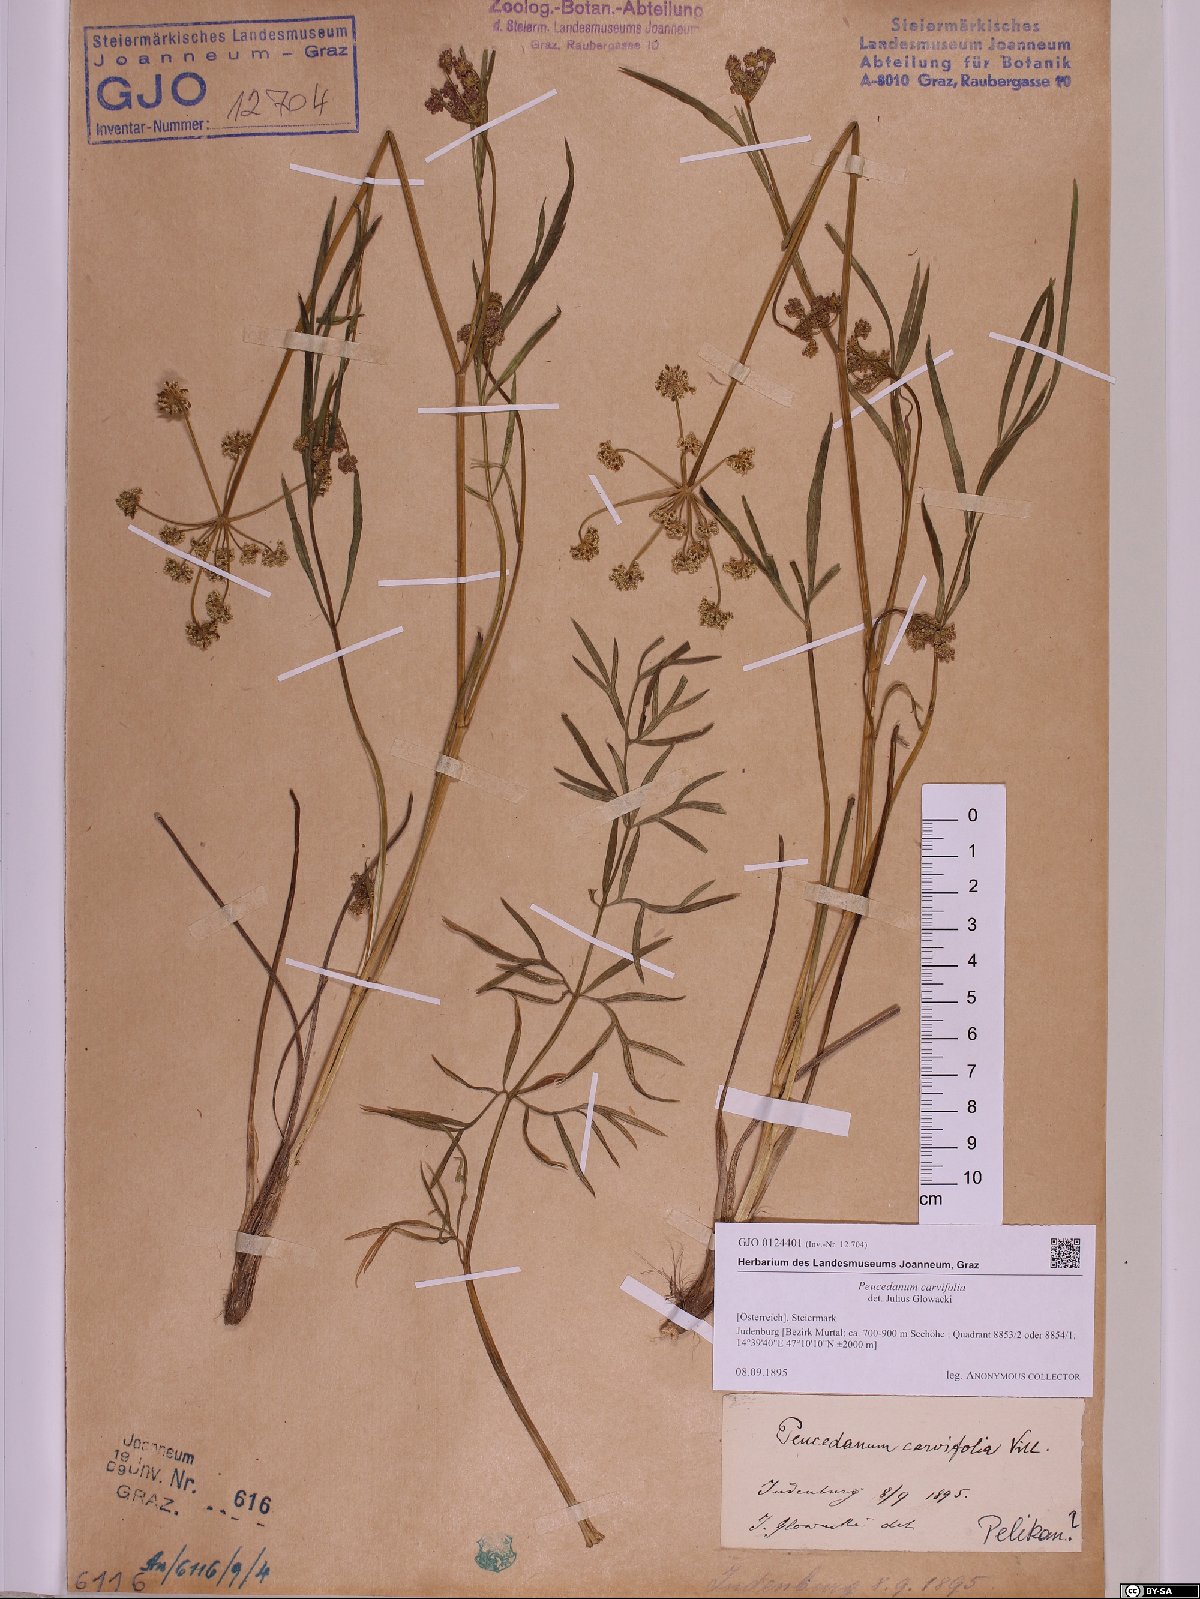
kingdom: Plantae
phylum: Tracheophyta
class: Magnoliopsida
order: Apiales
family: Apiaceae
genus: Dichoropetalum
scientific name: Dichoropetalum carvifolia
